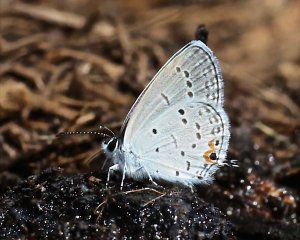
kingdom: Animalia
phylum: Arthropoda
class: Insecta
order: Lepidoptera
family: Lycaenidae
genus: Elkalyce
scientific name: Elkalyce comyntas
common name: Eastern Tailed-Blue
